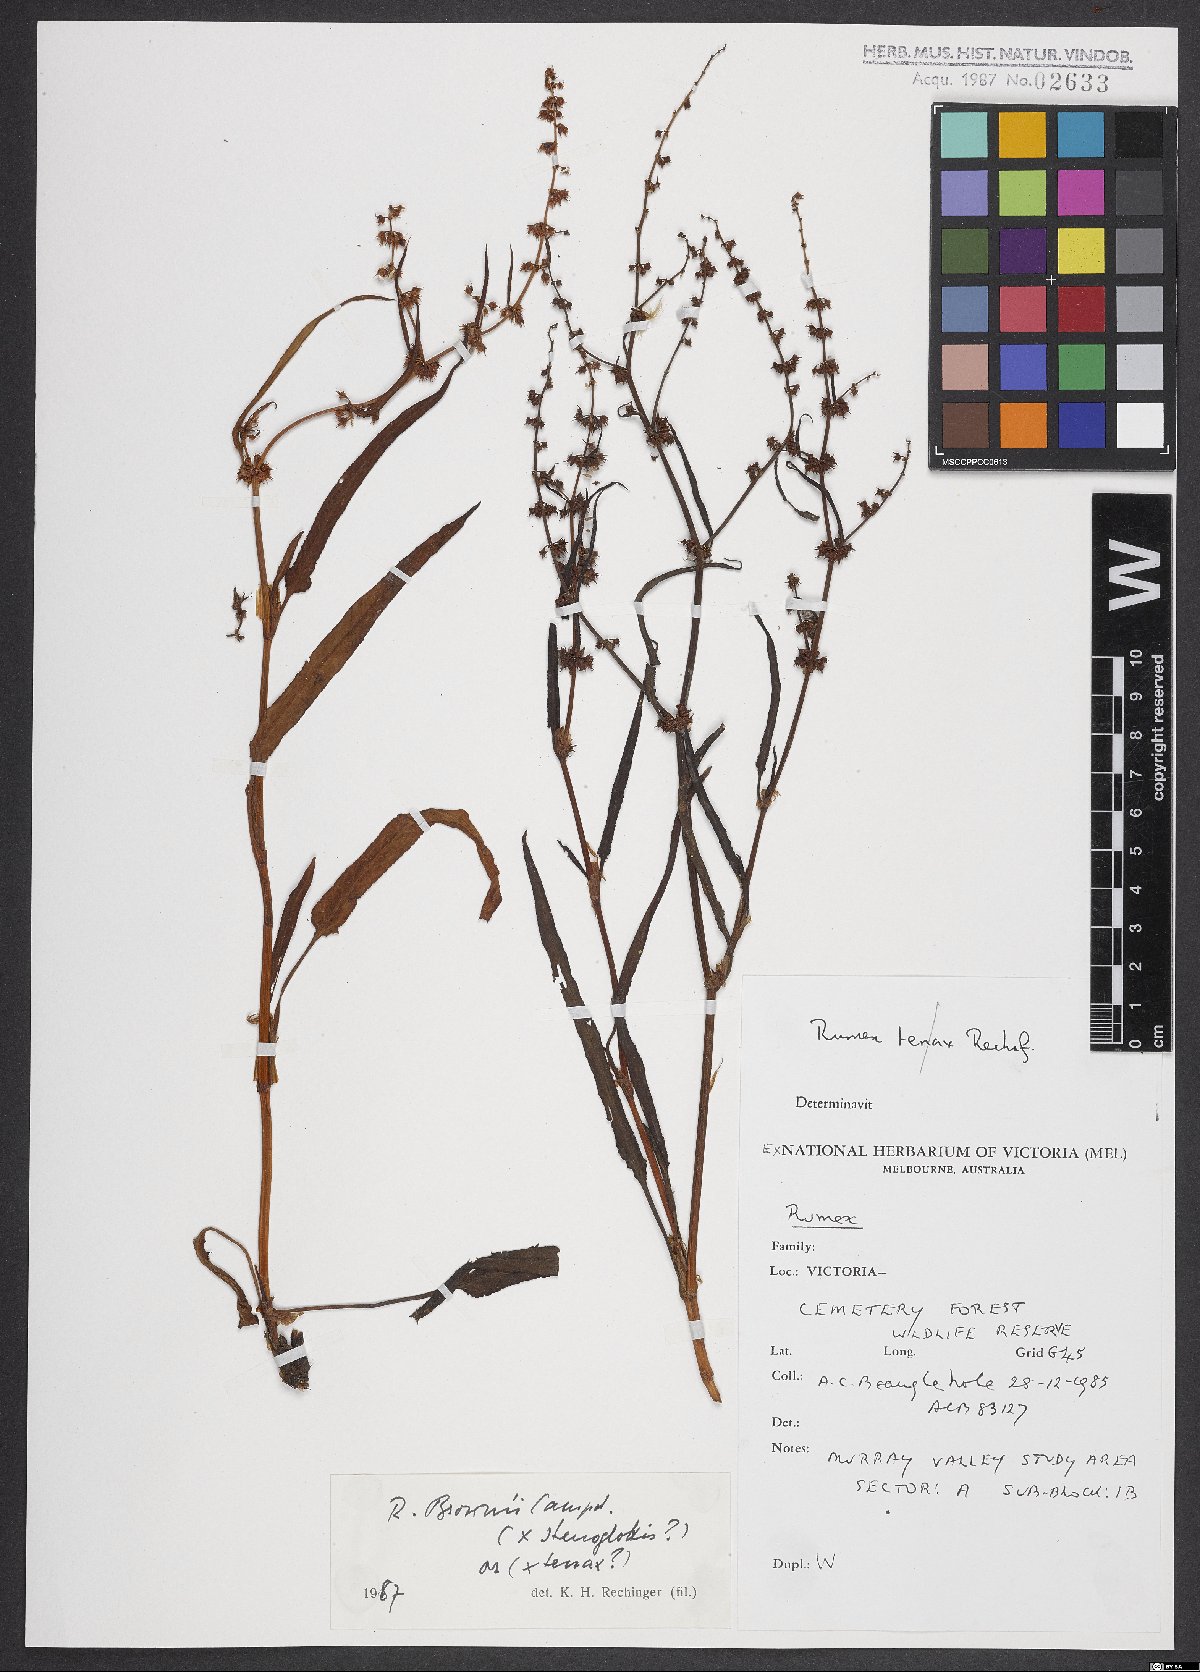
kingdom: Plantae
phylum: Tracheophyta
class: Magnoliopsida
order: Caryophyllales
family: Polygonaceae
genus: Rumex
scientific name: Rumex brownii
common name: Hooked dock
